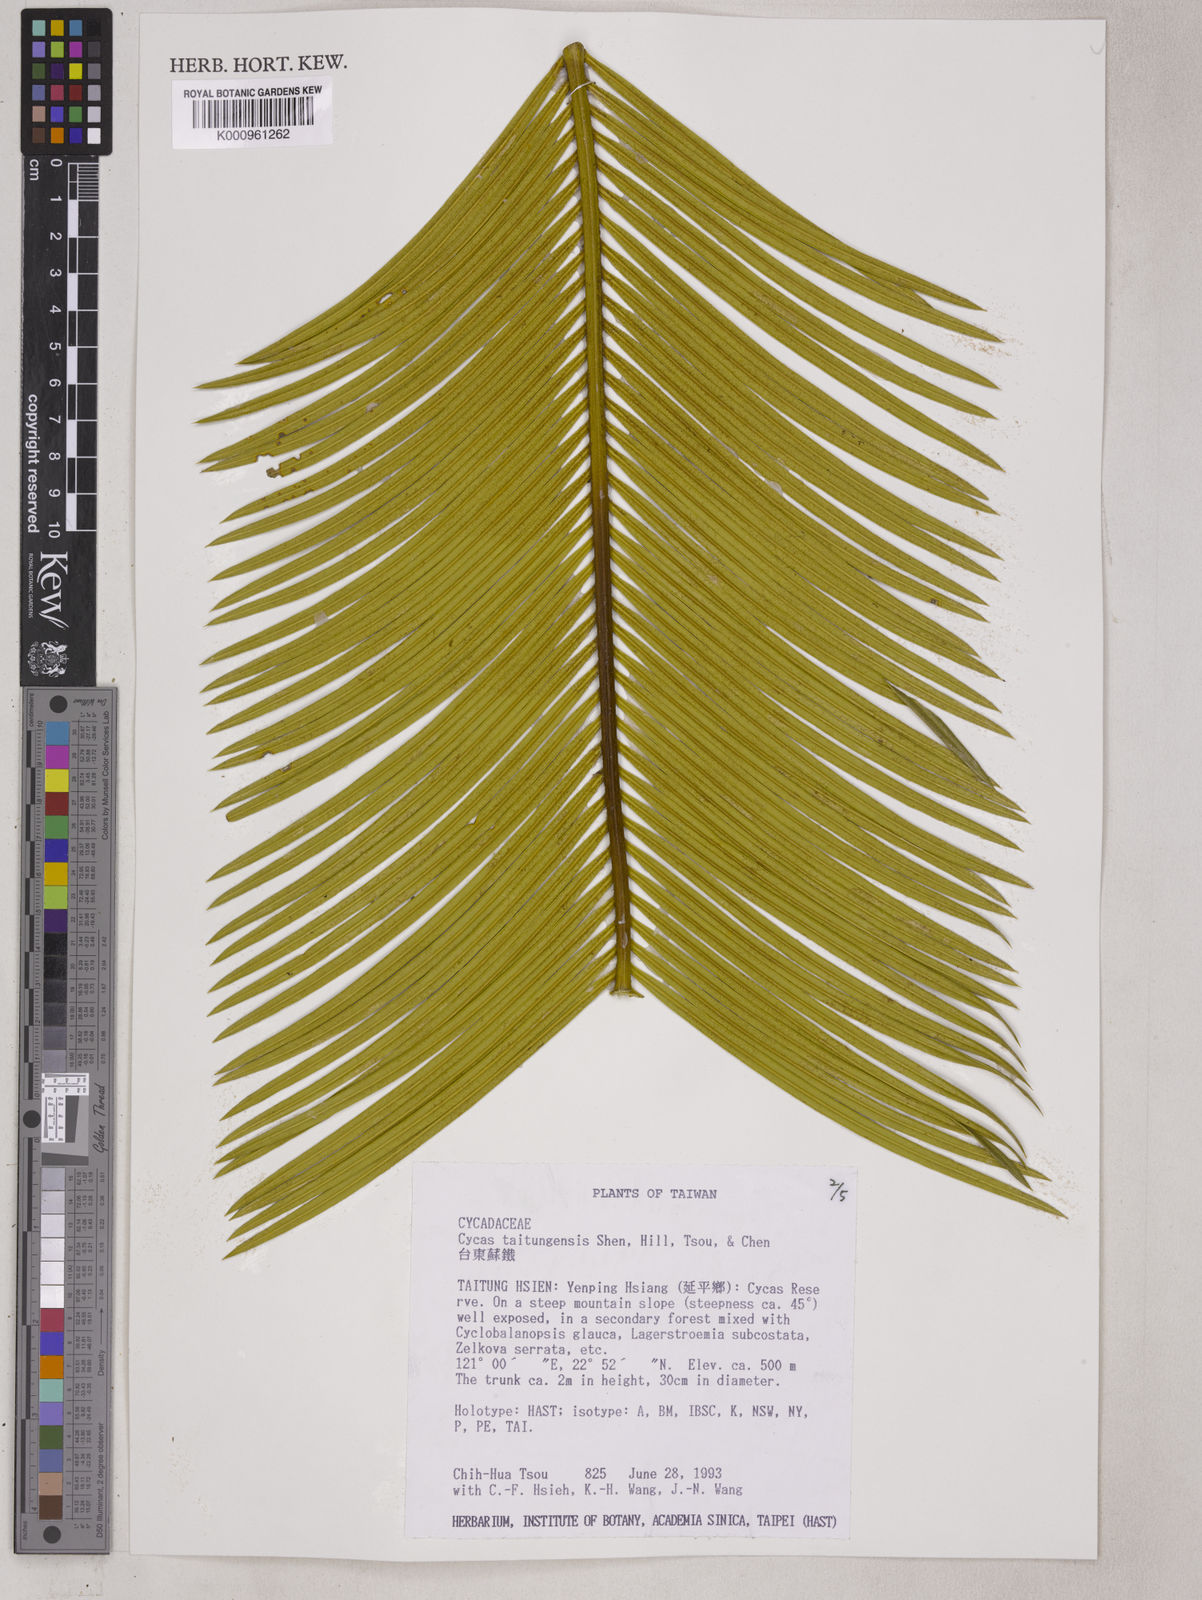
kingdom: Plantae
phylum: Tracheophyta
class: Cycadopsida
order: Cycadales
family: Cycadaceae
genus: Cycas
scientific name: Cycas
